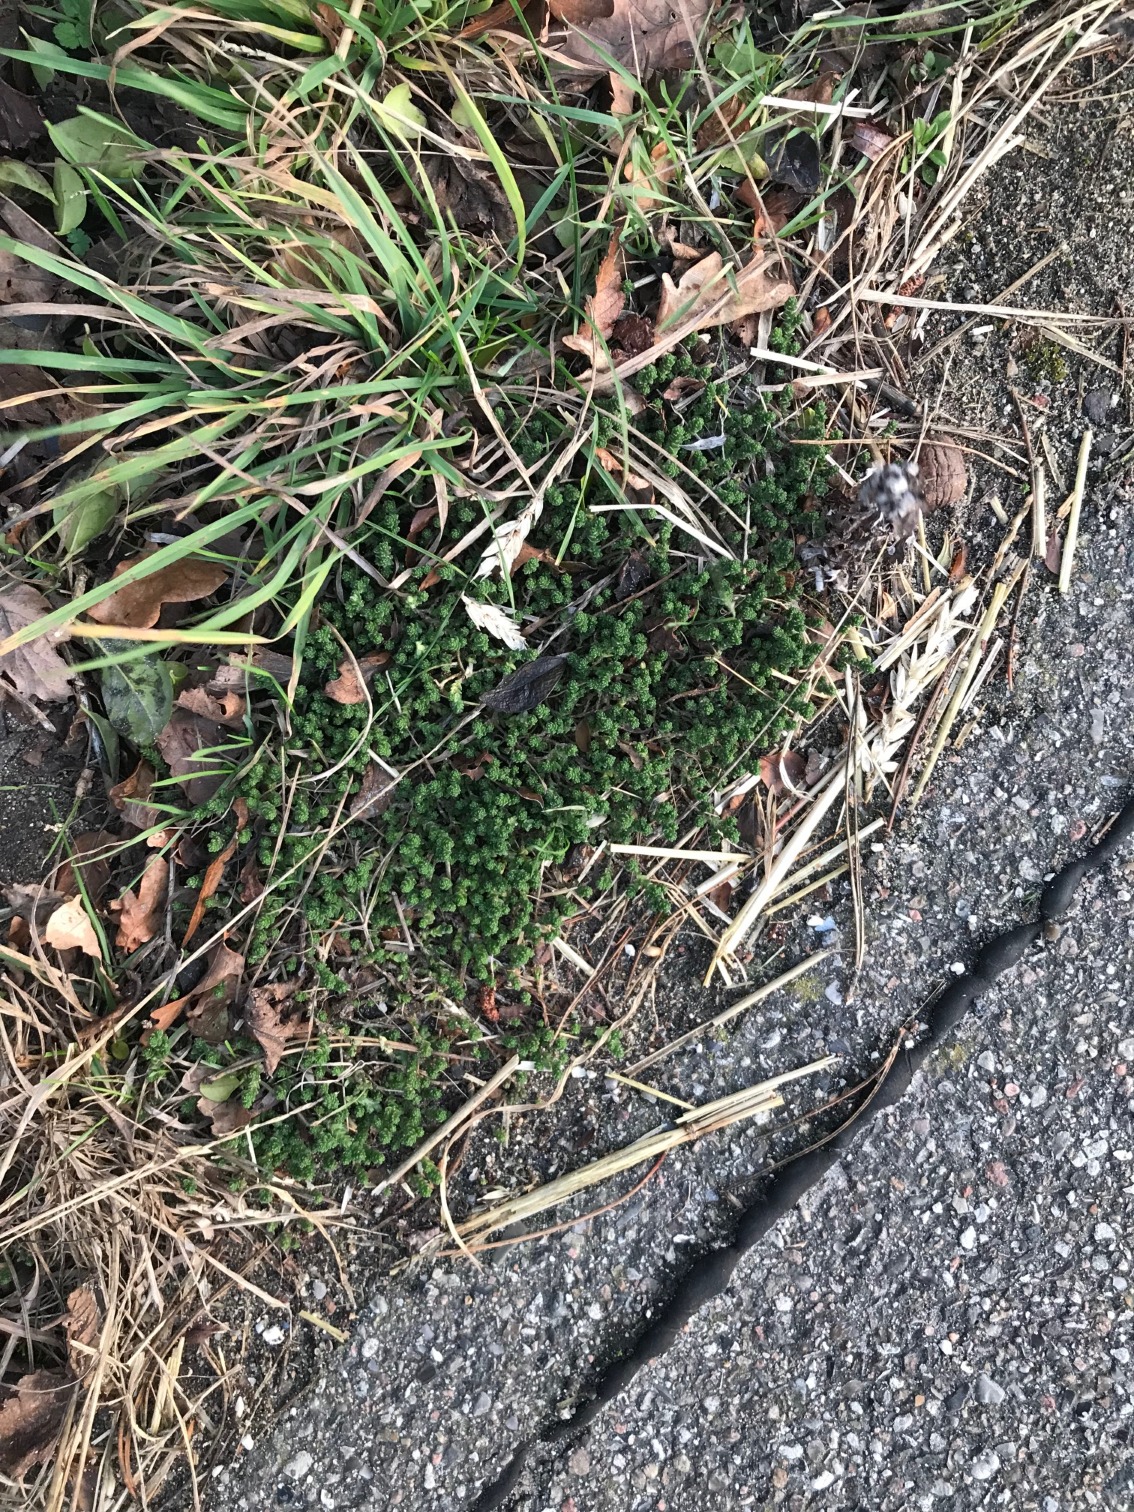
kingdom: Plantae
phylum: Tracheophyta
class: Magnoliopsida
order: Saxifragales
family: Crassulaceae
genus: Sedum
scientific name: Sedum acre
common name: Bidende stenurt
